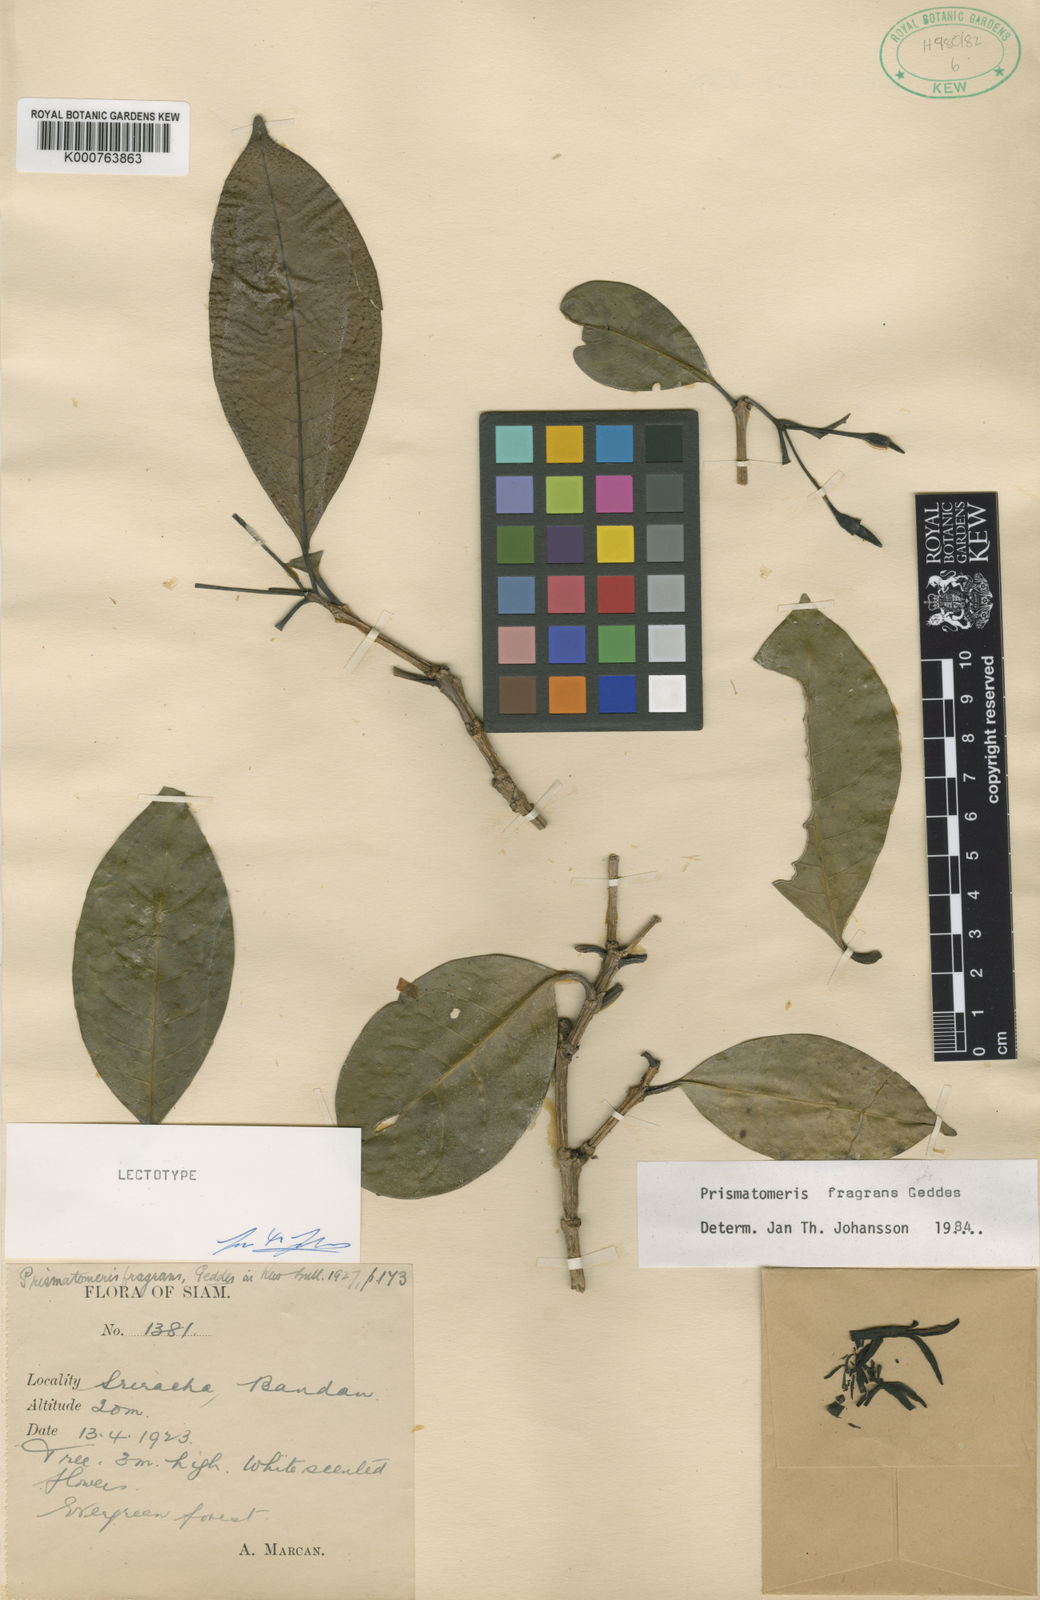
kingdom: Plantae
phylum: Tracheophyta
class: Magnoliopsida
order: Gentianales
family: Rubiaceae
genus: Prismatomeris
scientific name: Prismatomeris fragrans
